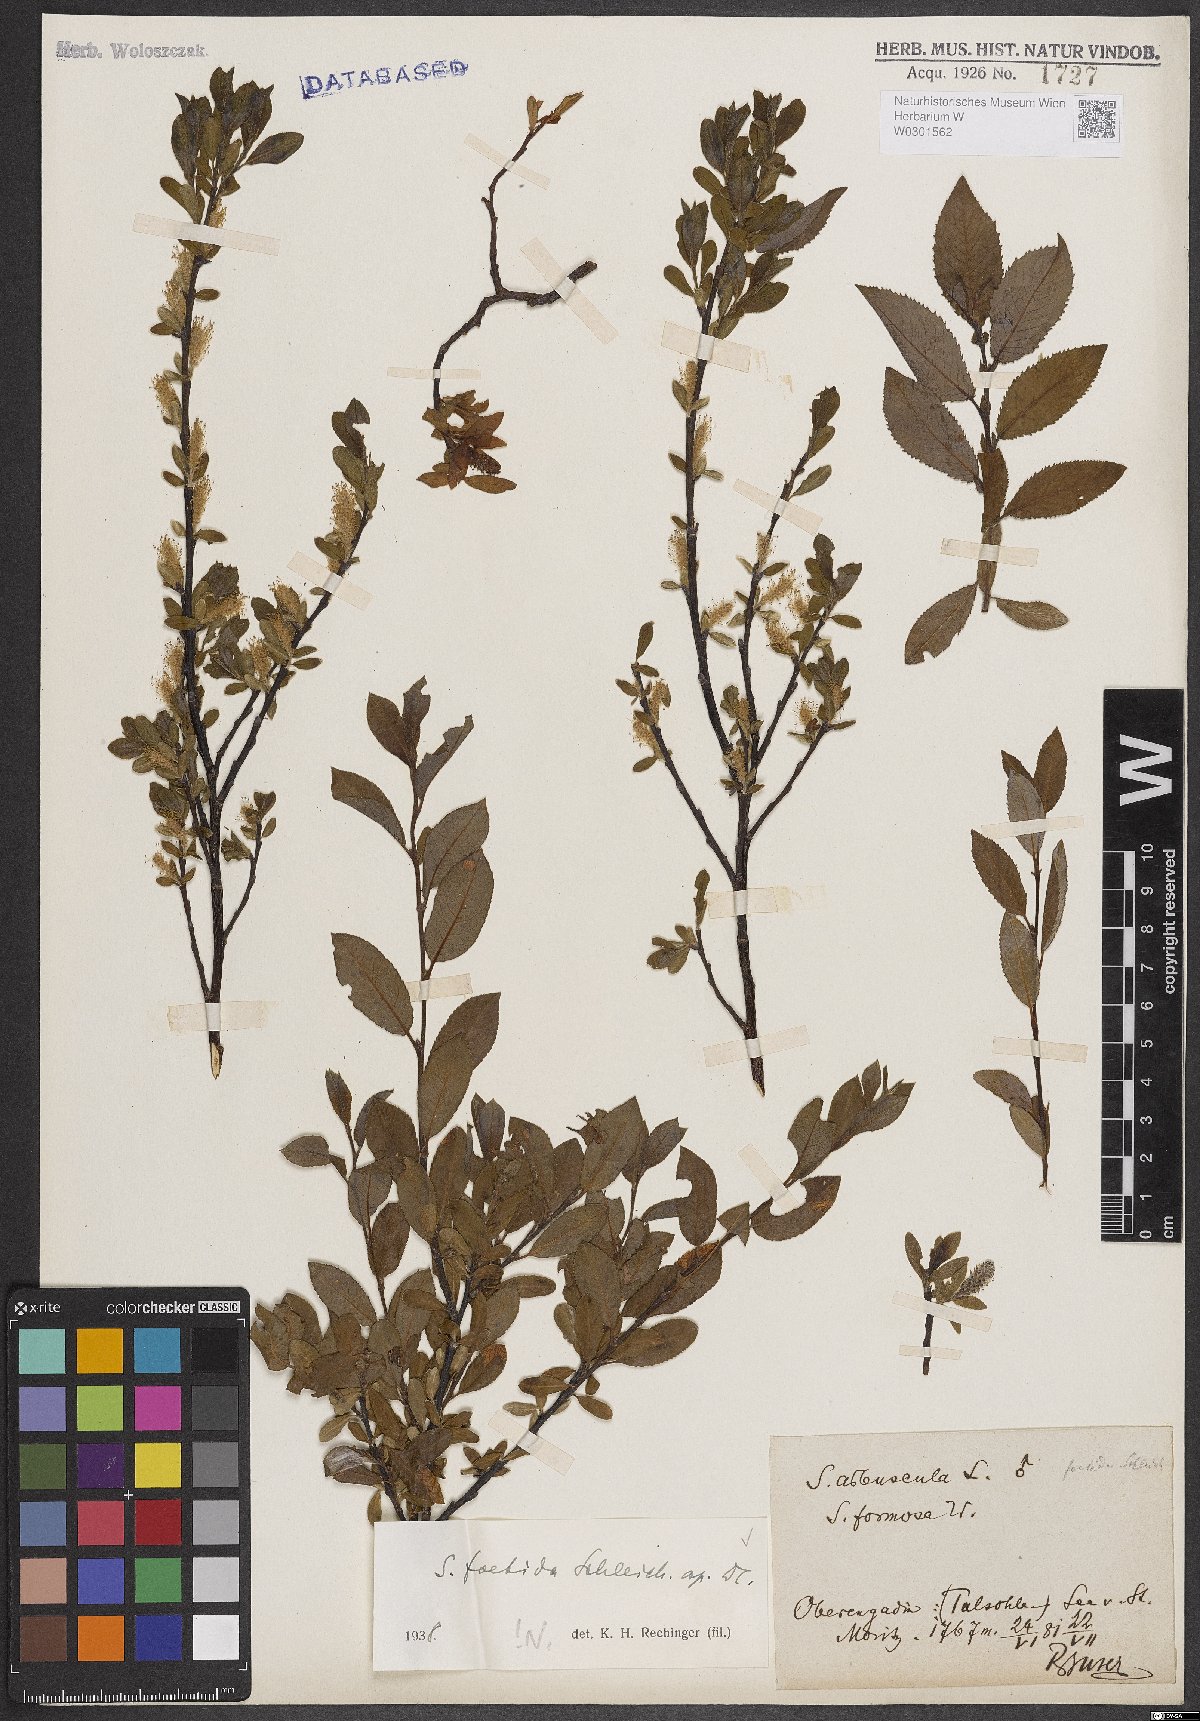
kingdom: Plantae
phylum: Tracheophyta
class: Magnoliopsida
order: Malpighiales
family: Salicaceae
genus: Salix
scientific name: Salix foetida
